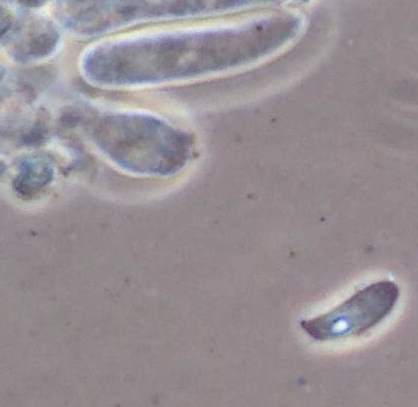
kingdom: Fungi
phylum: Basidiomycota
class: Agaricomycetes
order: Agaricales
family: Crepidotaceae
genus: Crepidotus
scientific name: Crepidotus epibryus
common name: førne-muslingesvamp
